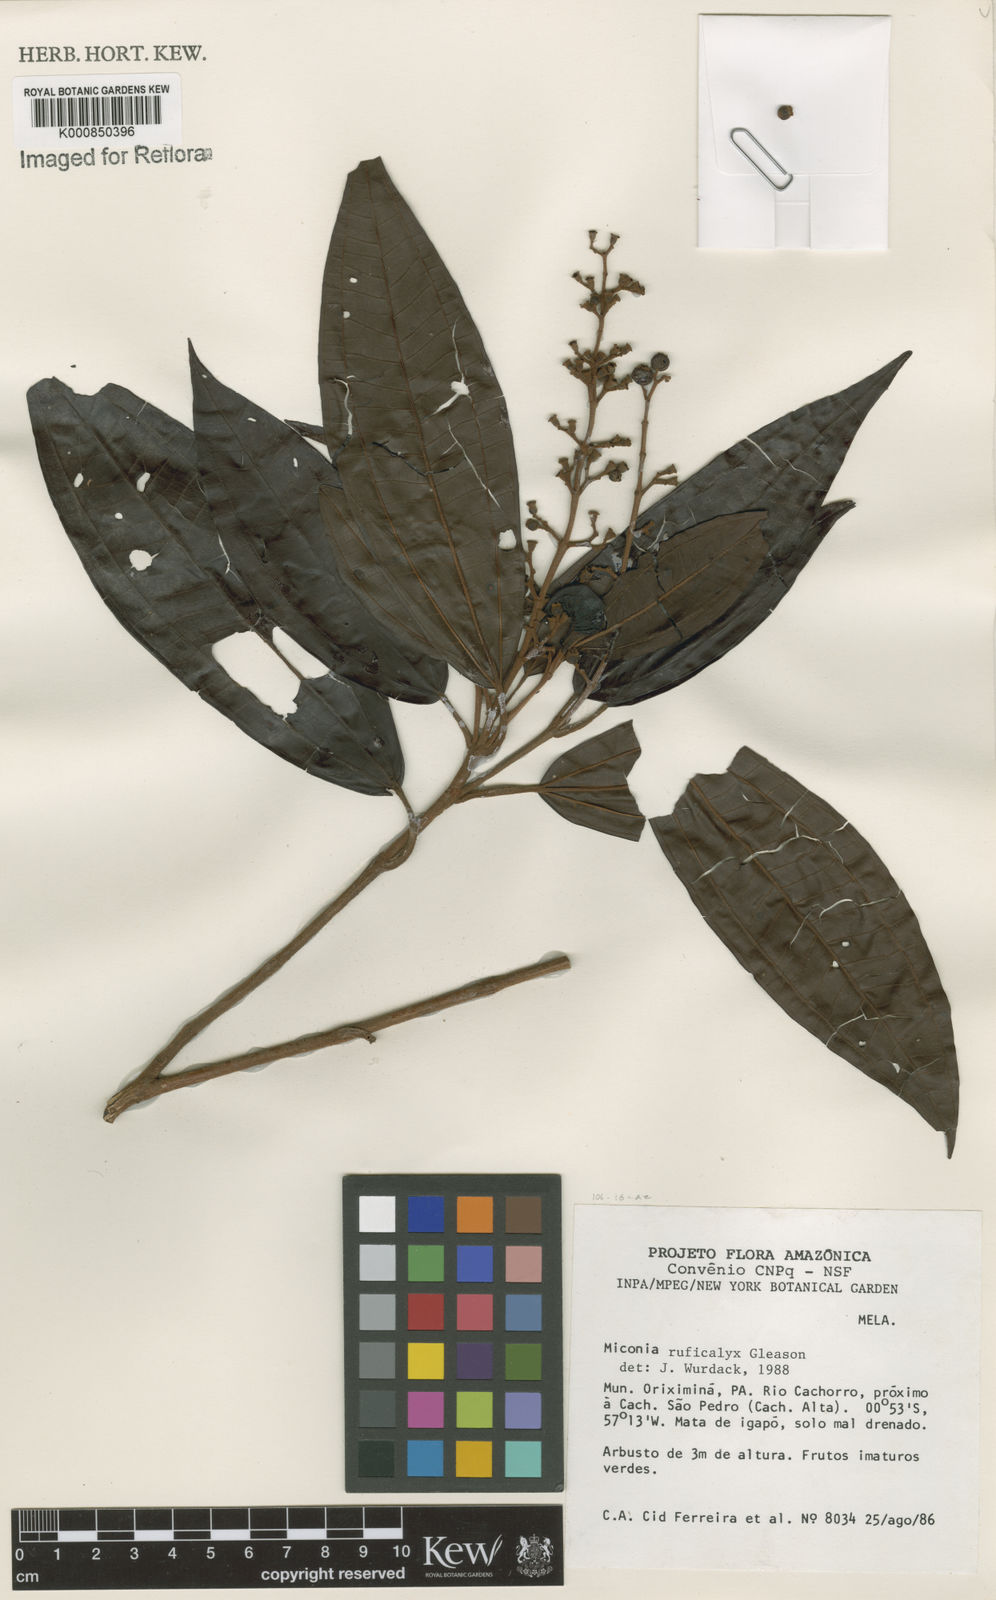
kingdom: Plantae
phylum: Tracheophyta
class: Magnoliopsida
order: Myrtales
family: Melastomataceae
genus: Miconia
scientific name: Miconia ruficalyx
